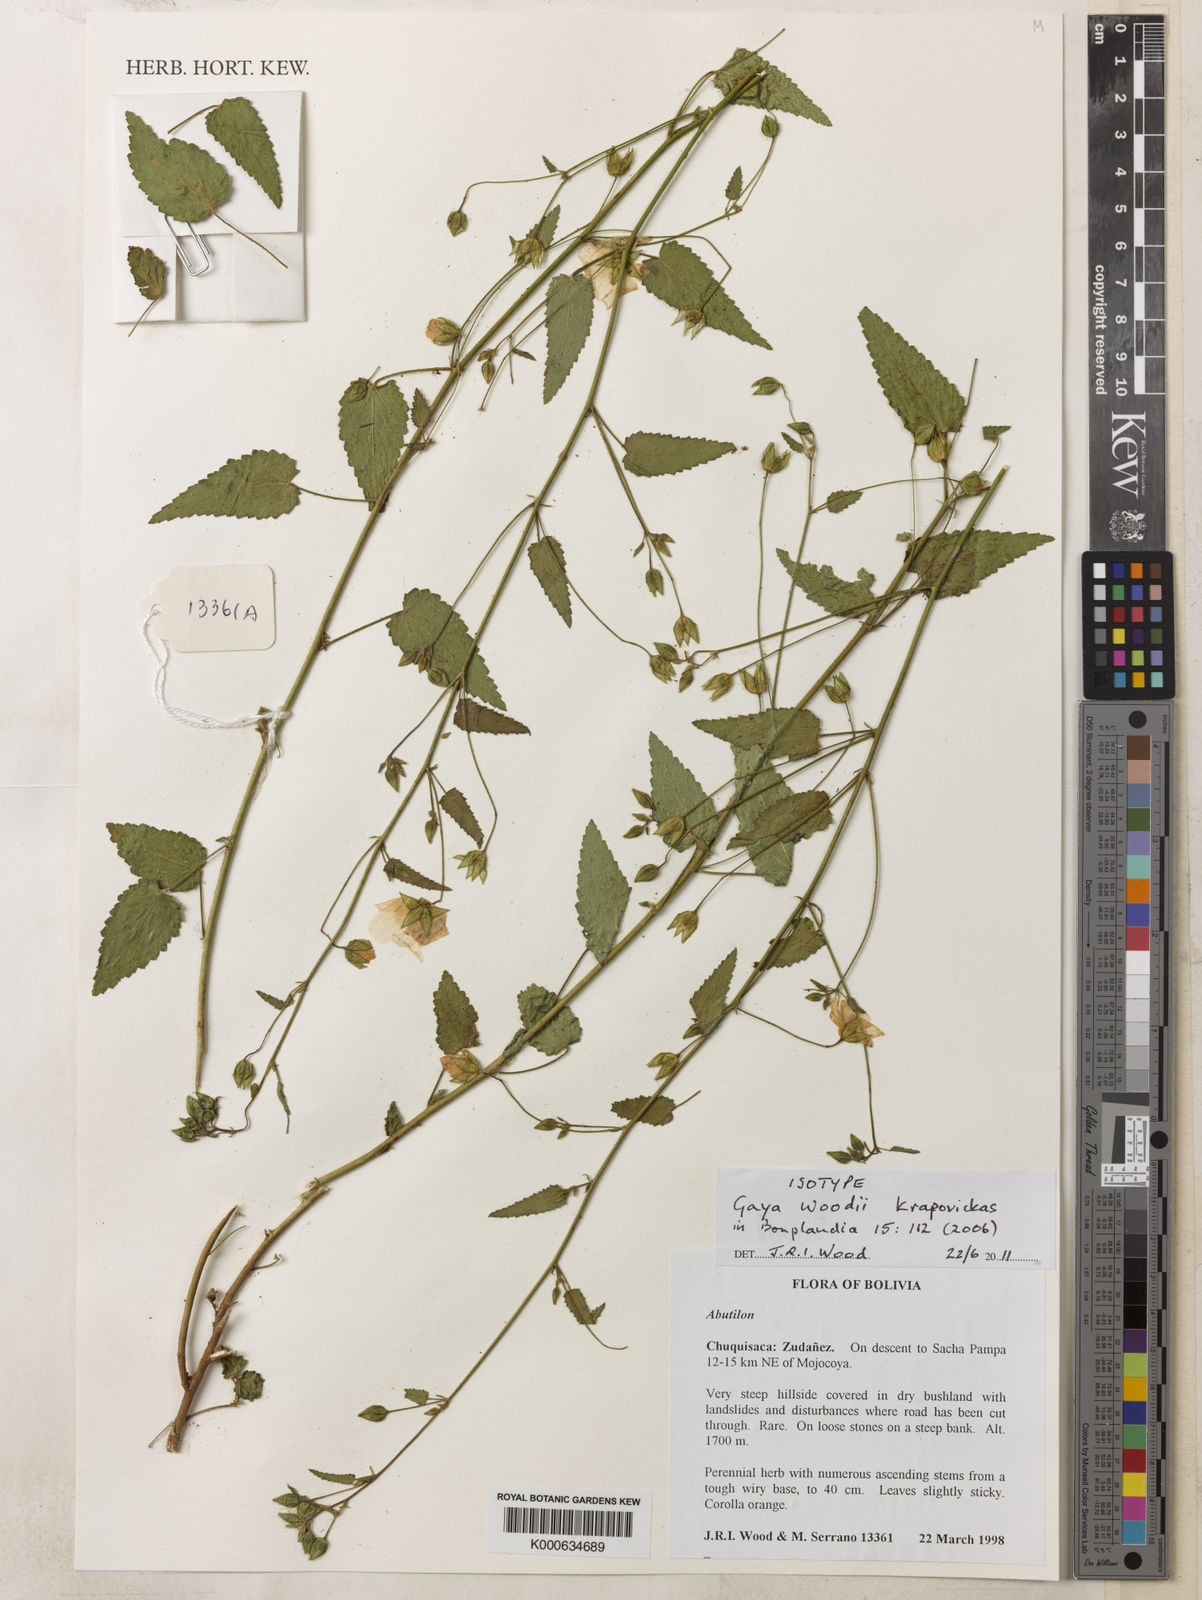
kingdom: Plantae
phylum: Tracheophyta
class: Magnoliopsida
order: Malvales
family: Malvaceae
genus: Sida
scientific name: Sida
